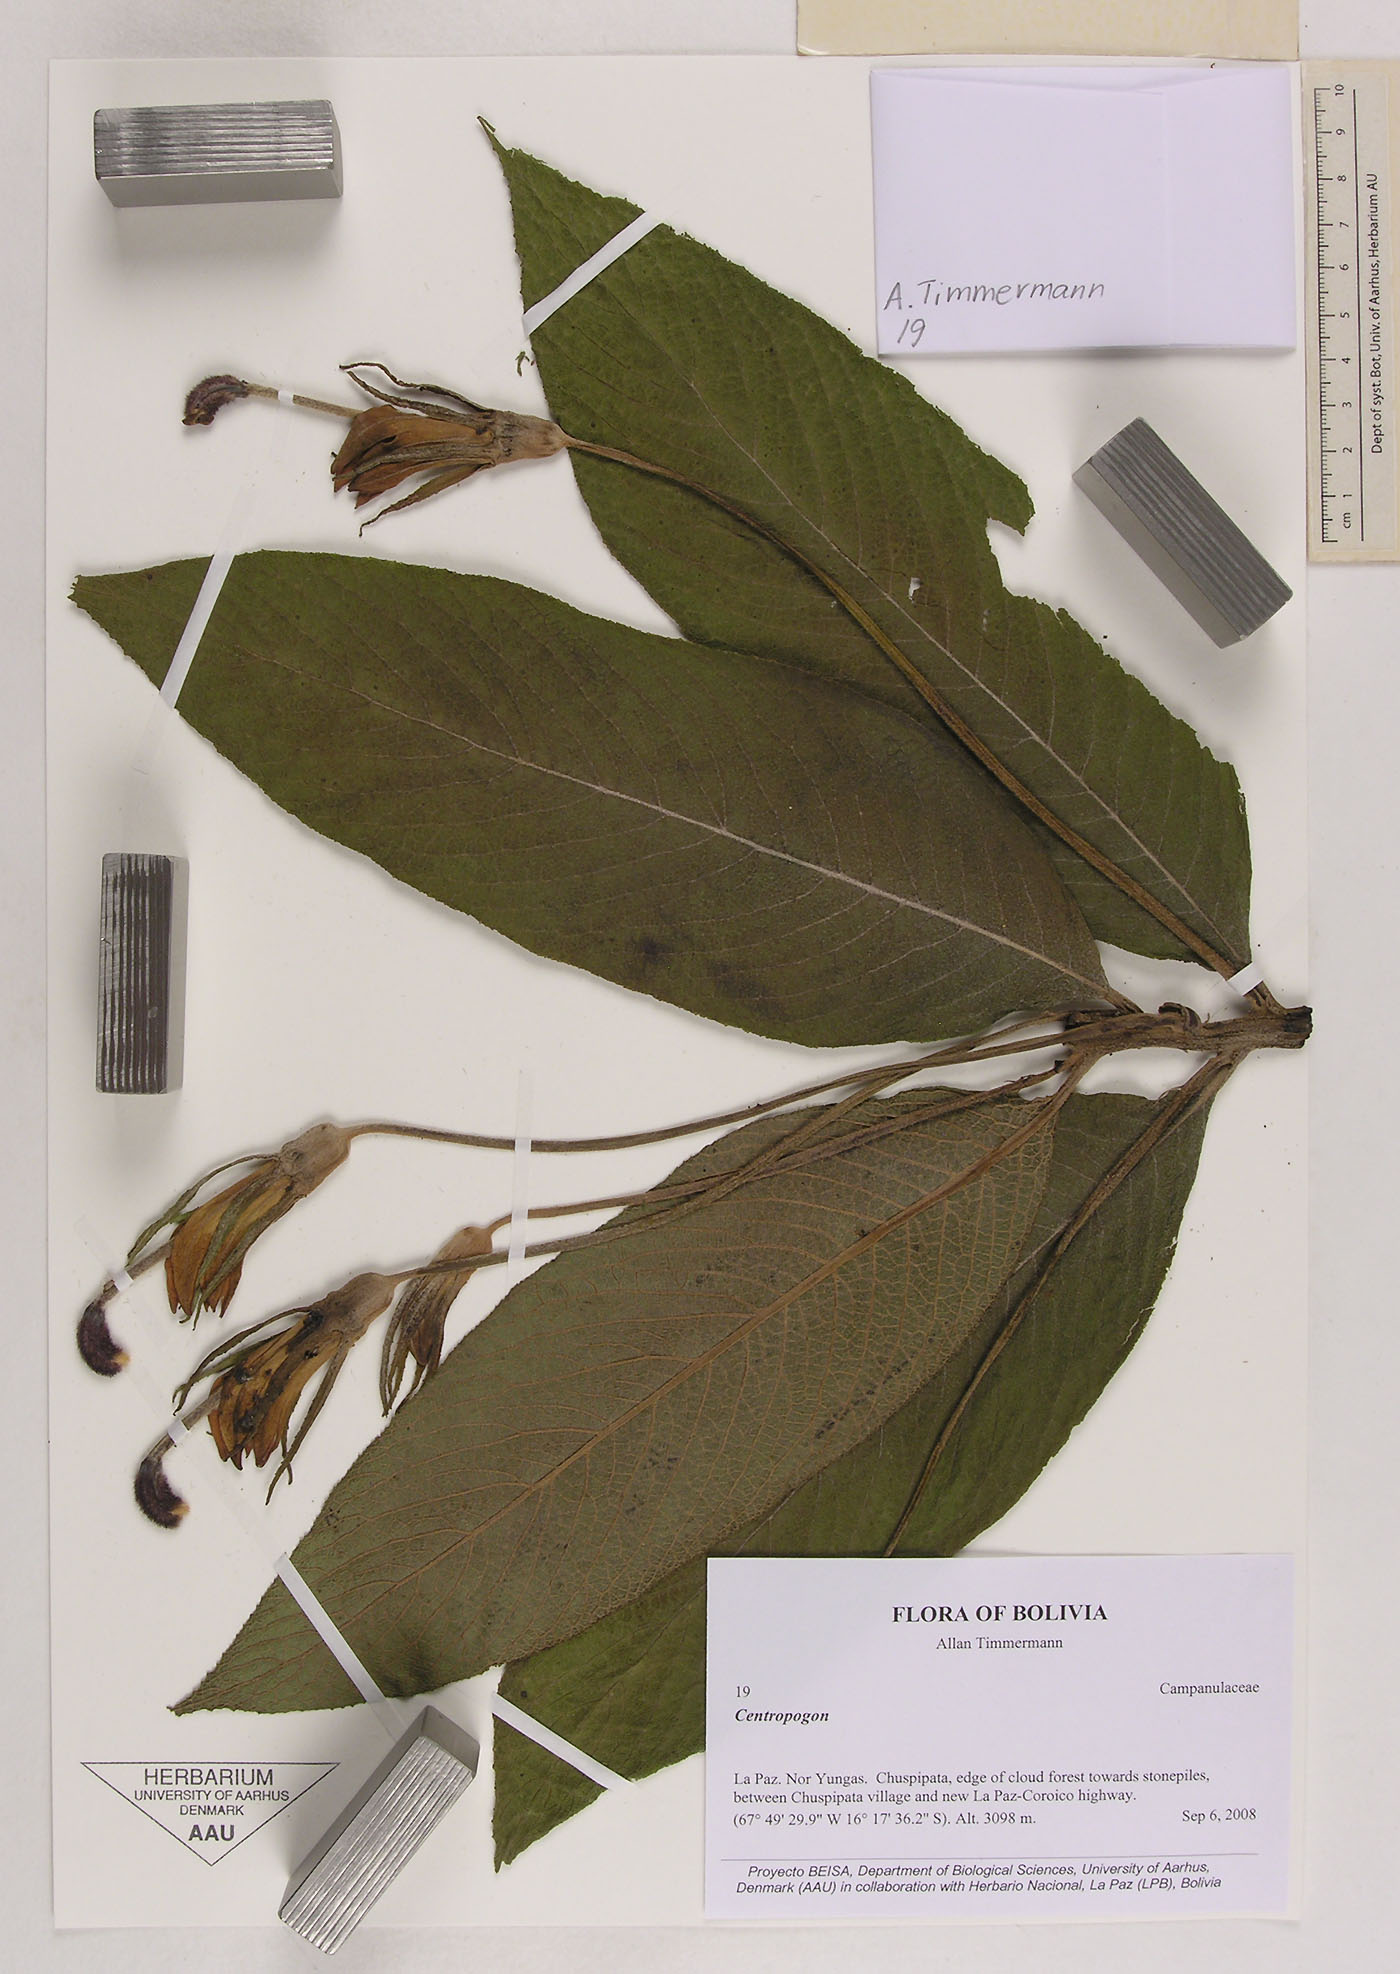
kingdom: Plantae
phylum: Tracheophyta
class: Magnoliopsida
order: Asterales
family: Campanulaceae
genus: Centropogon
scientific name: Centropogon
